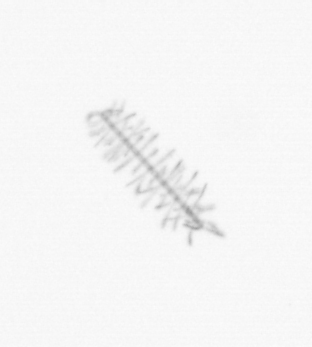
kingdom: Chromista
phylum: Ochrophyta
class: Bacillariophyceae
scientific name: Bacillariophyceae
